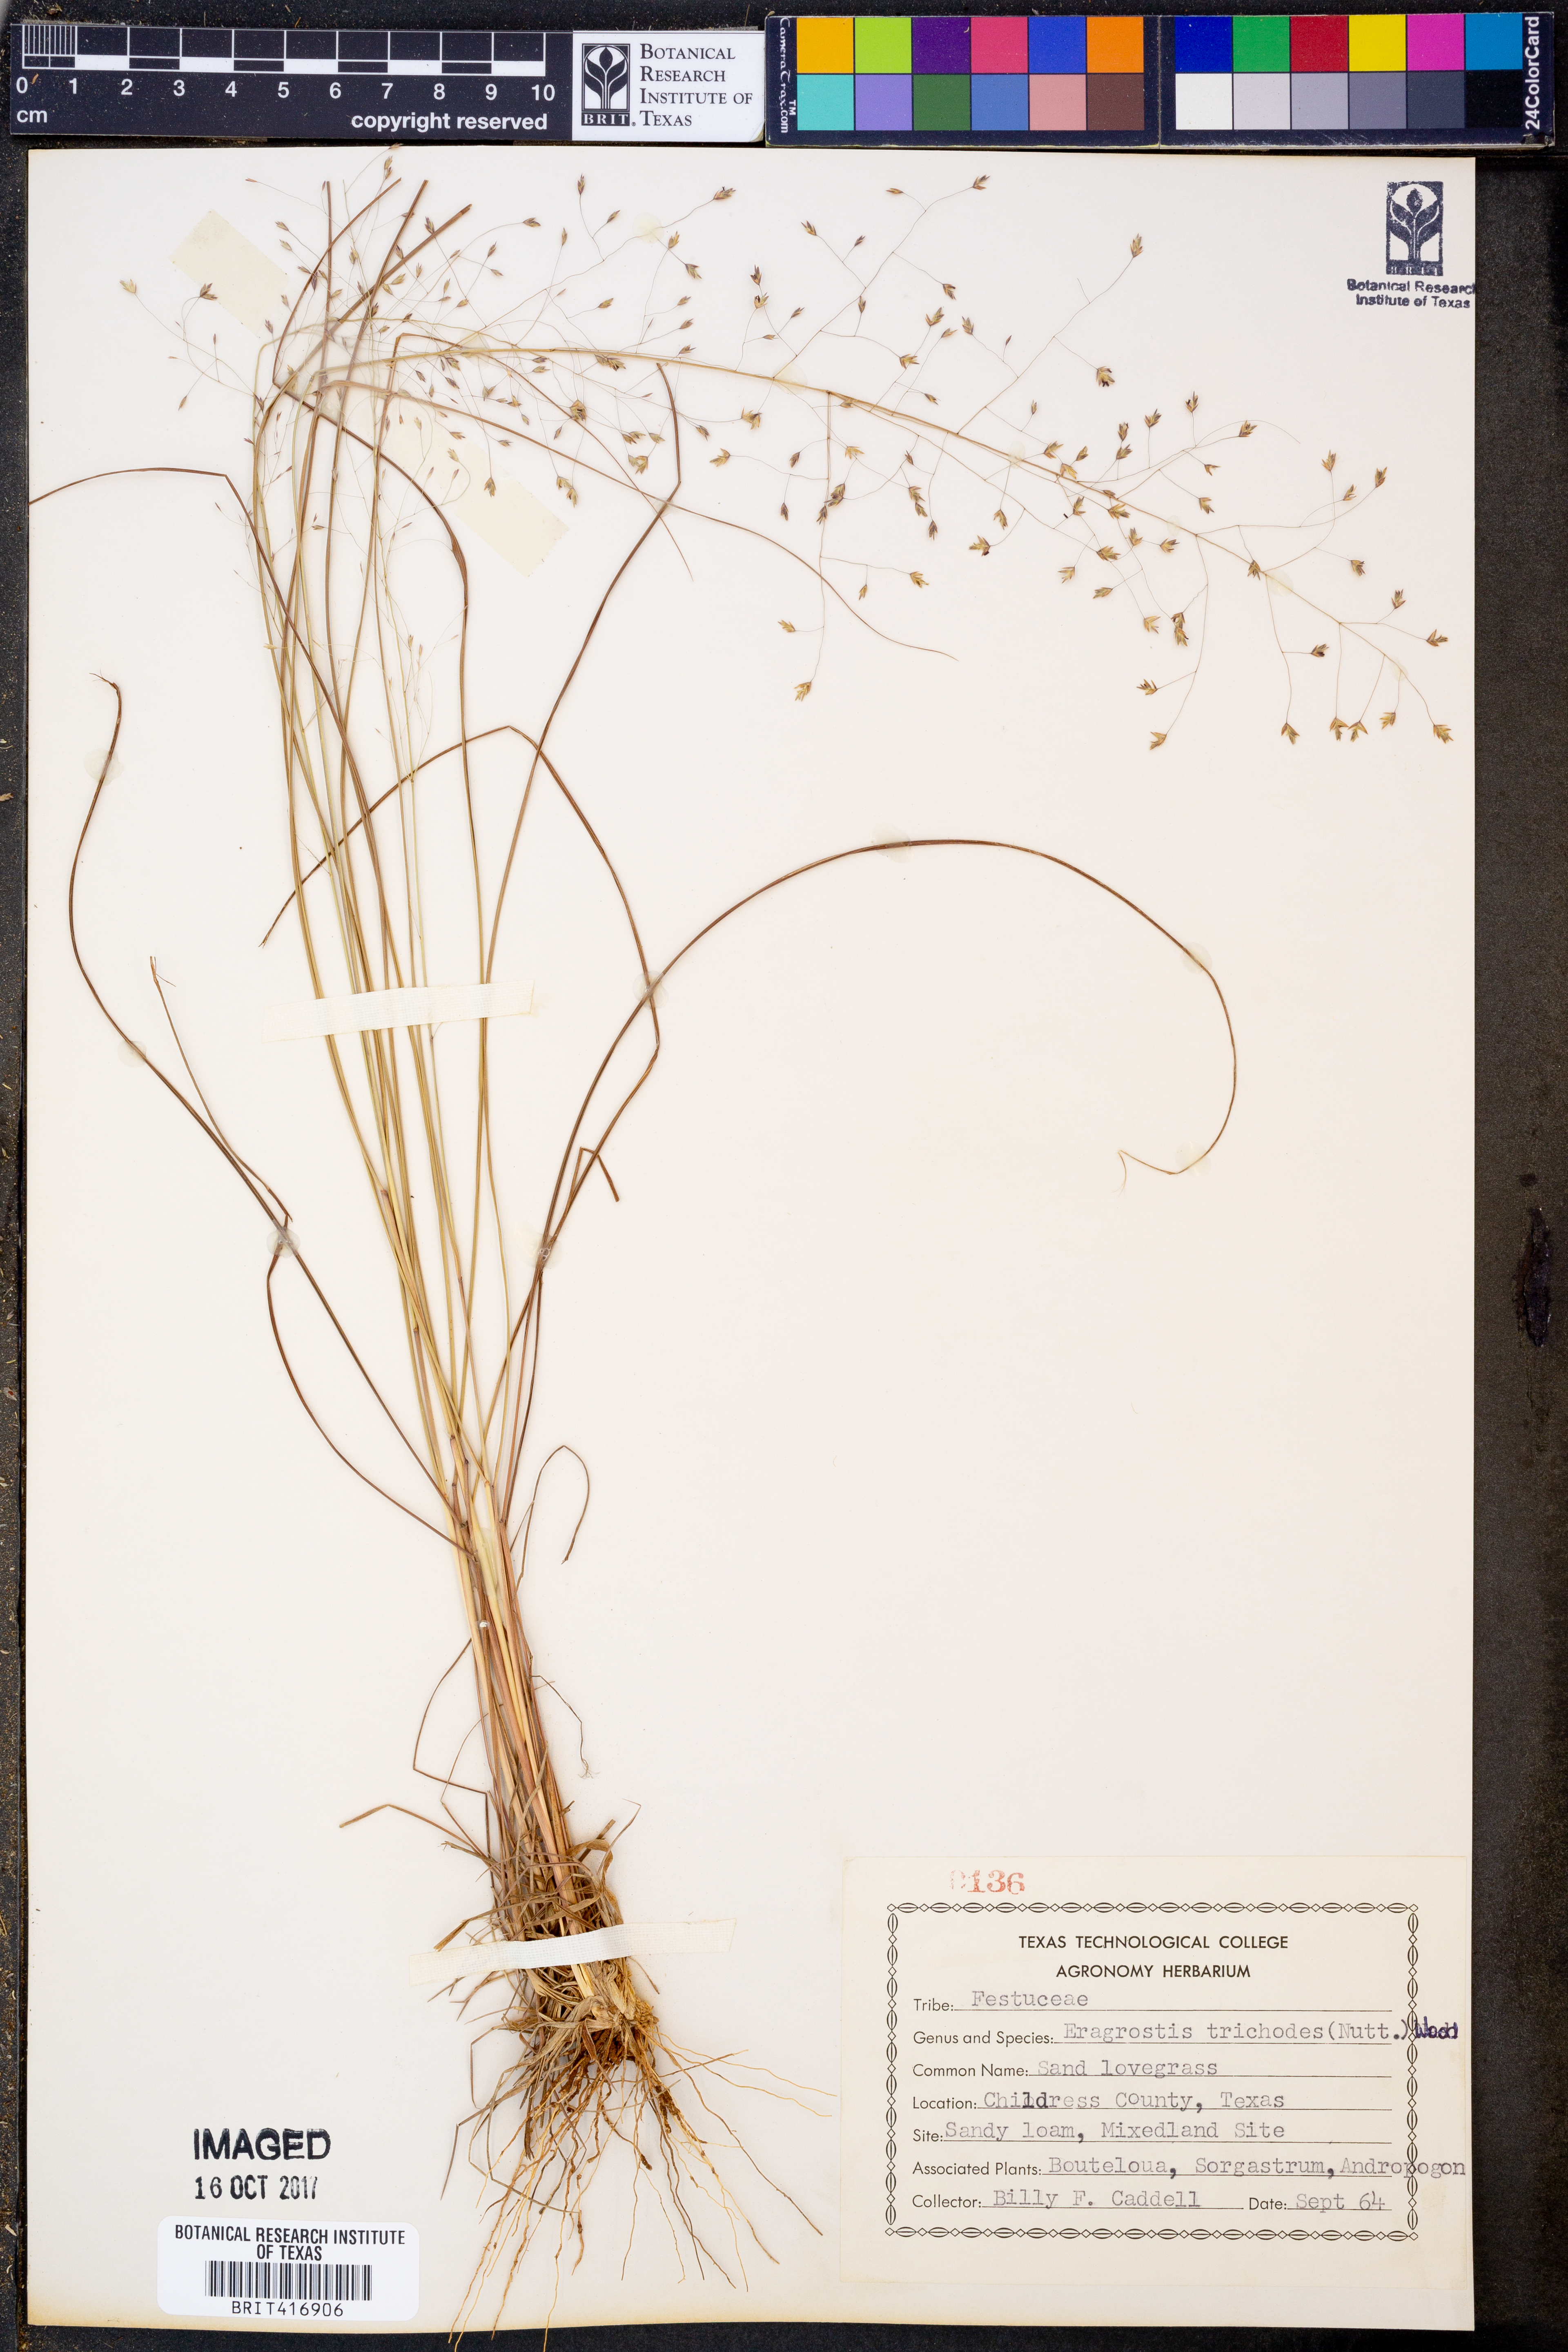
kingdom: Plantae
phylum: Tracheophyta
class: Liliopsida
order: Poales
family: Poaceae
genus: Eragrostis
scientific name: Eragrostis trichodes
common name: Sand love grass
